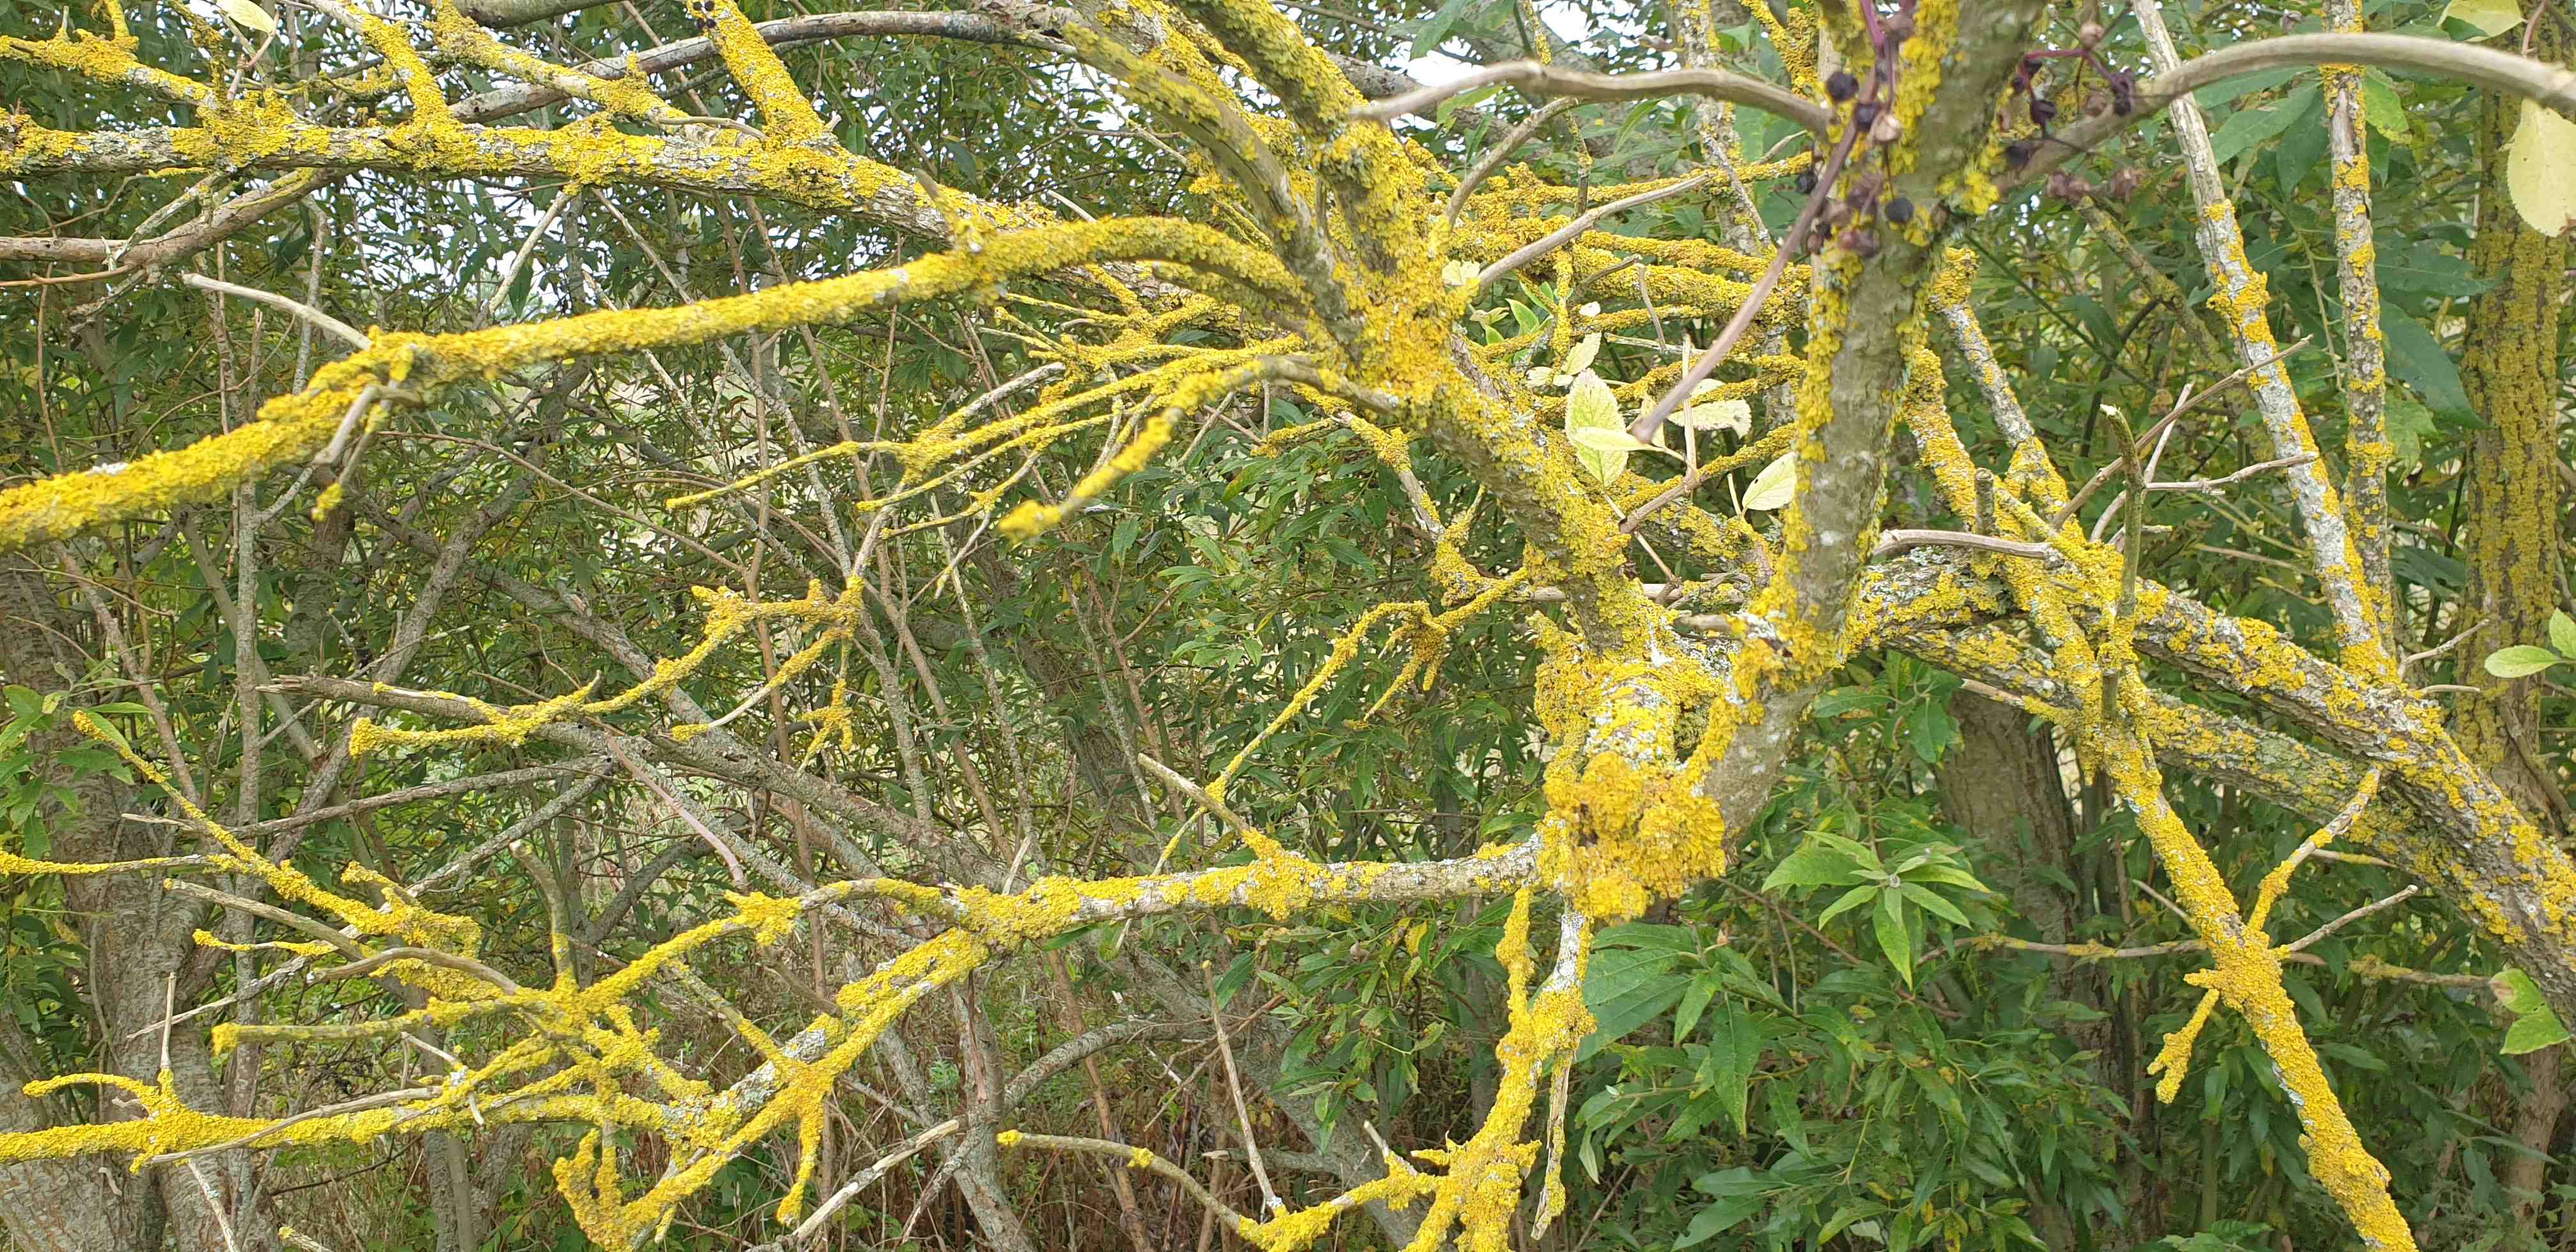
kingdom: Fungi
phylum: Ascomycota
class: Lecanoromycetes
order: Teloschistales
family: Teloschistaceae
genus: Xanthoria
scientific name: Xanthoria parietina
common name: almindelig væggelav
